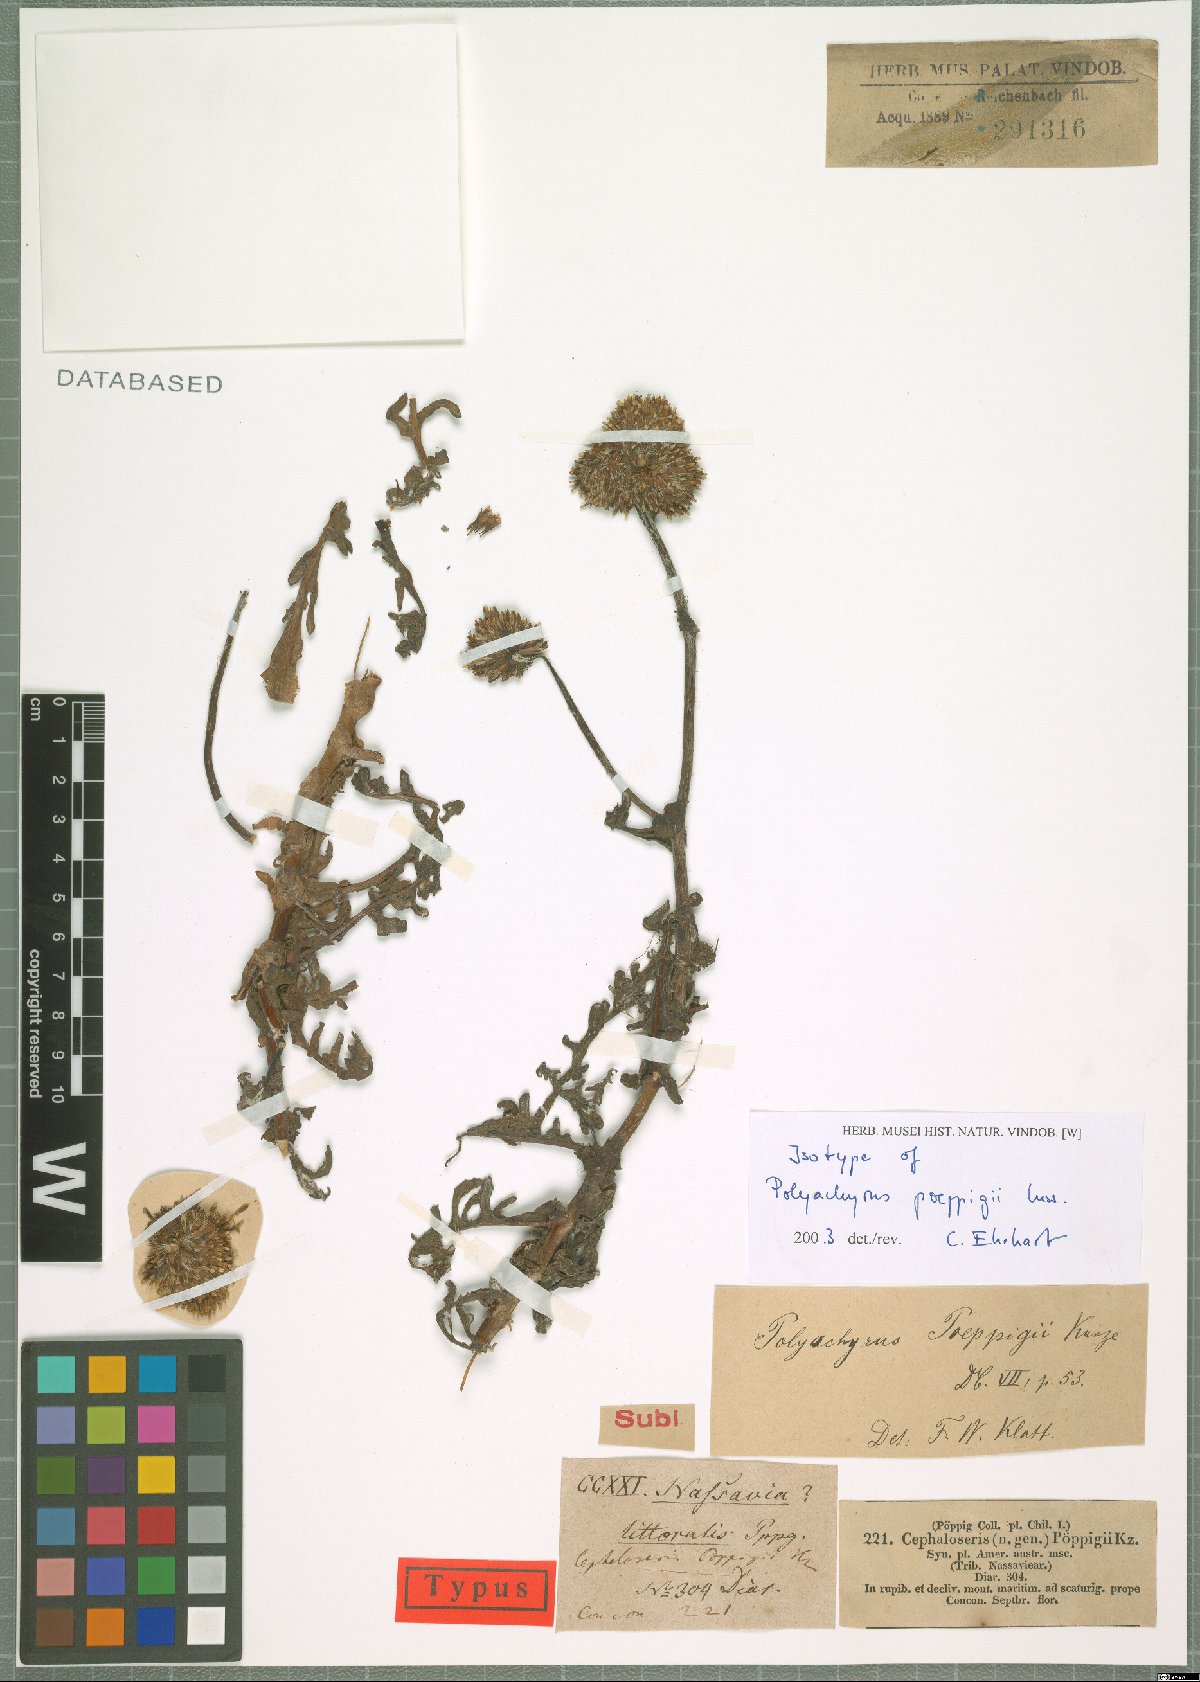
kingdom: Plantae
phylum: Tracheophyta
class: Magnoliopsida
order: Asterales
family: Asteraceae
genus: Polyachyrus
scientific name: Polyachyrus poeppigii
